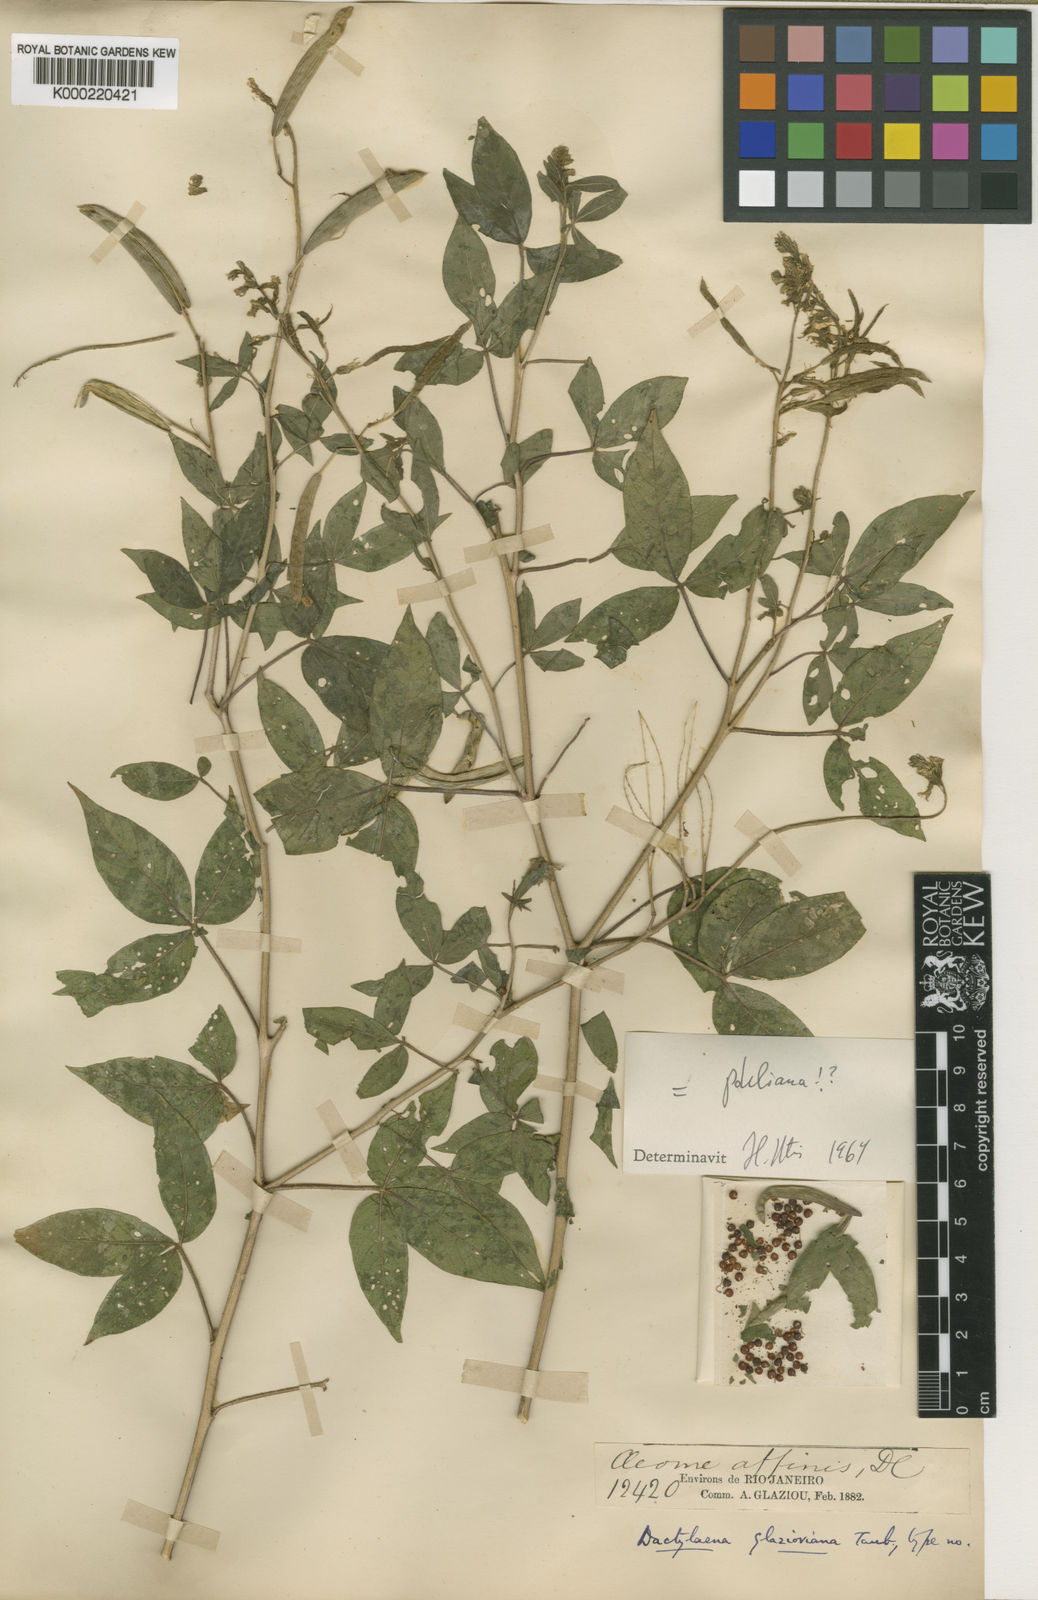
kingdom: Plantae
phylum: Tracheophyta
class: Magnoliopsida
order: Brassicales
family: Cleomaceae
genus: Dactylaena
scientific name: Dactylaena pohliana
